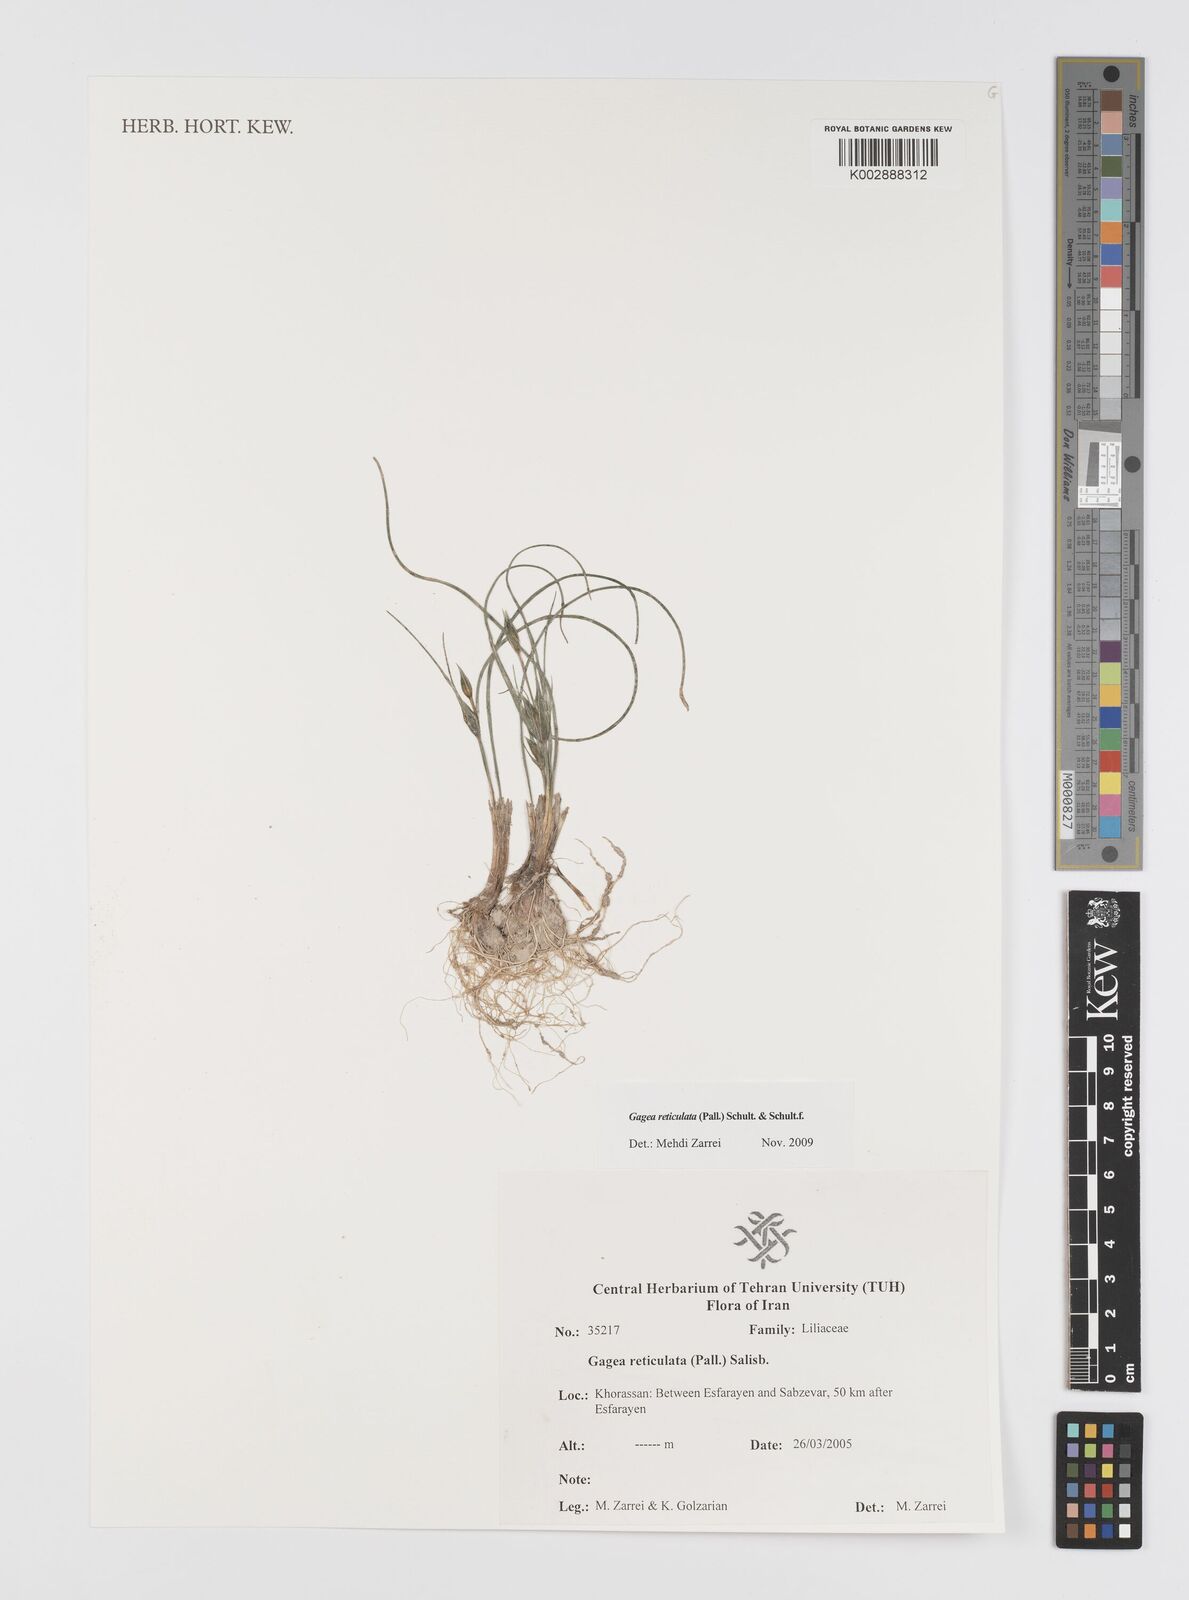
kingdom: Plantae
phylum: Tracheophyta
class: Liliopsida
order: Liliales
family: Liliaceae
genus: Gagea
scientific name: Gagea reticulata
